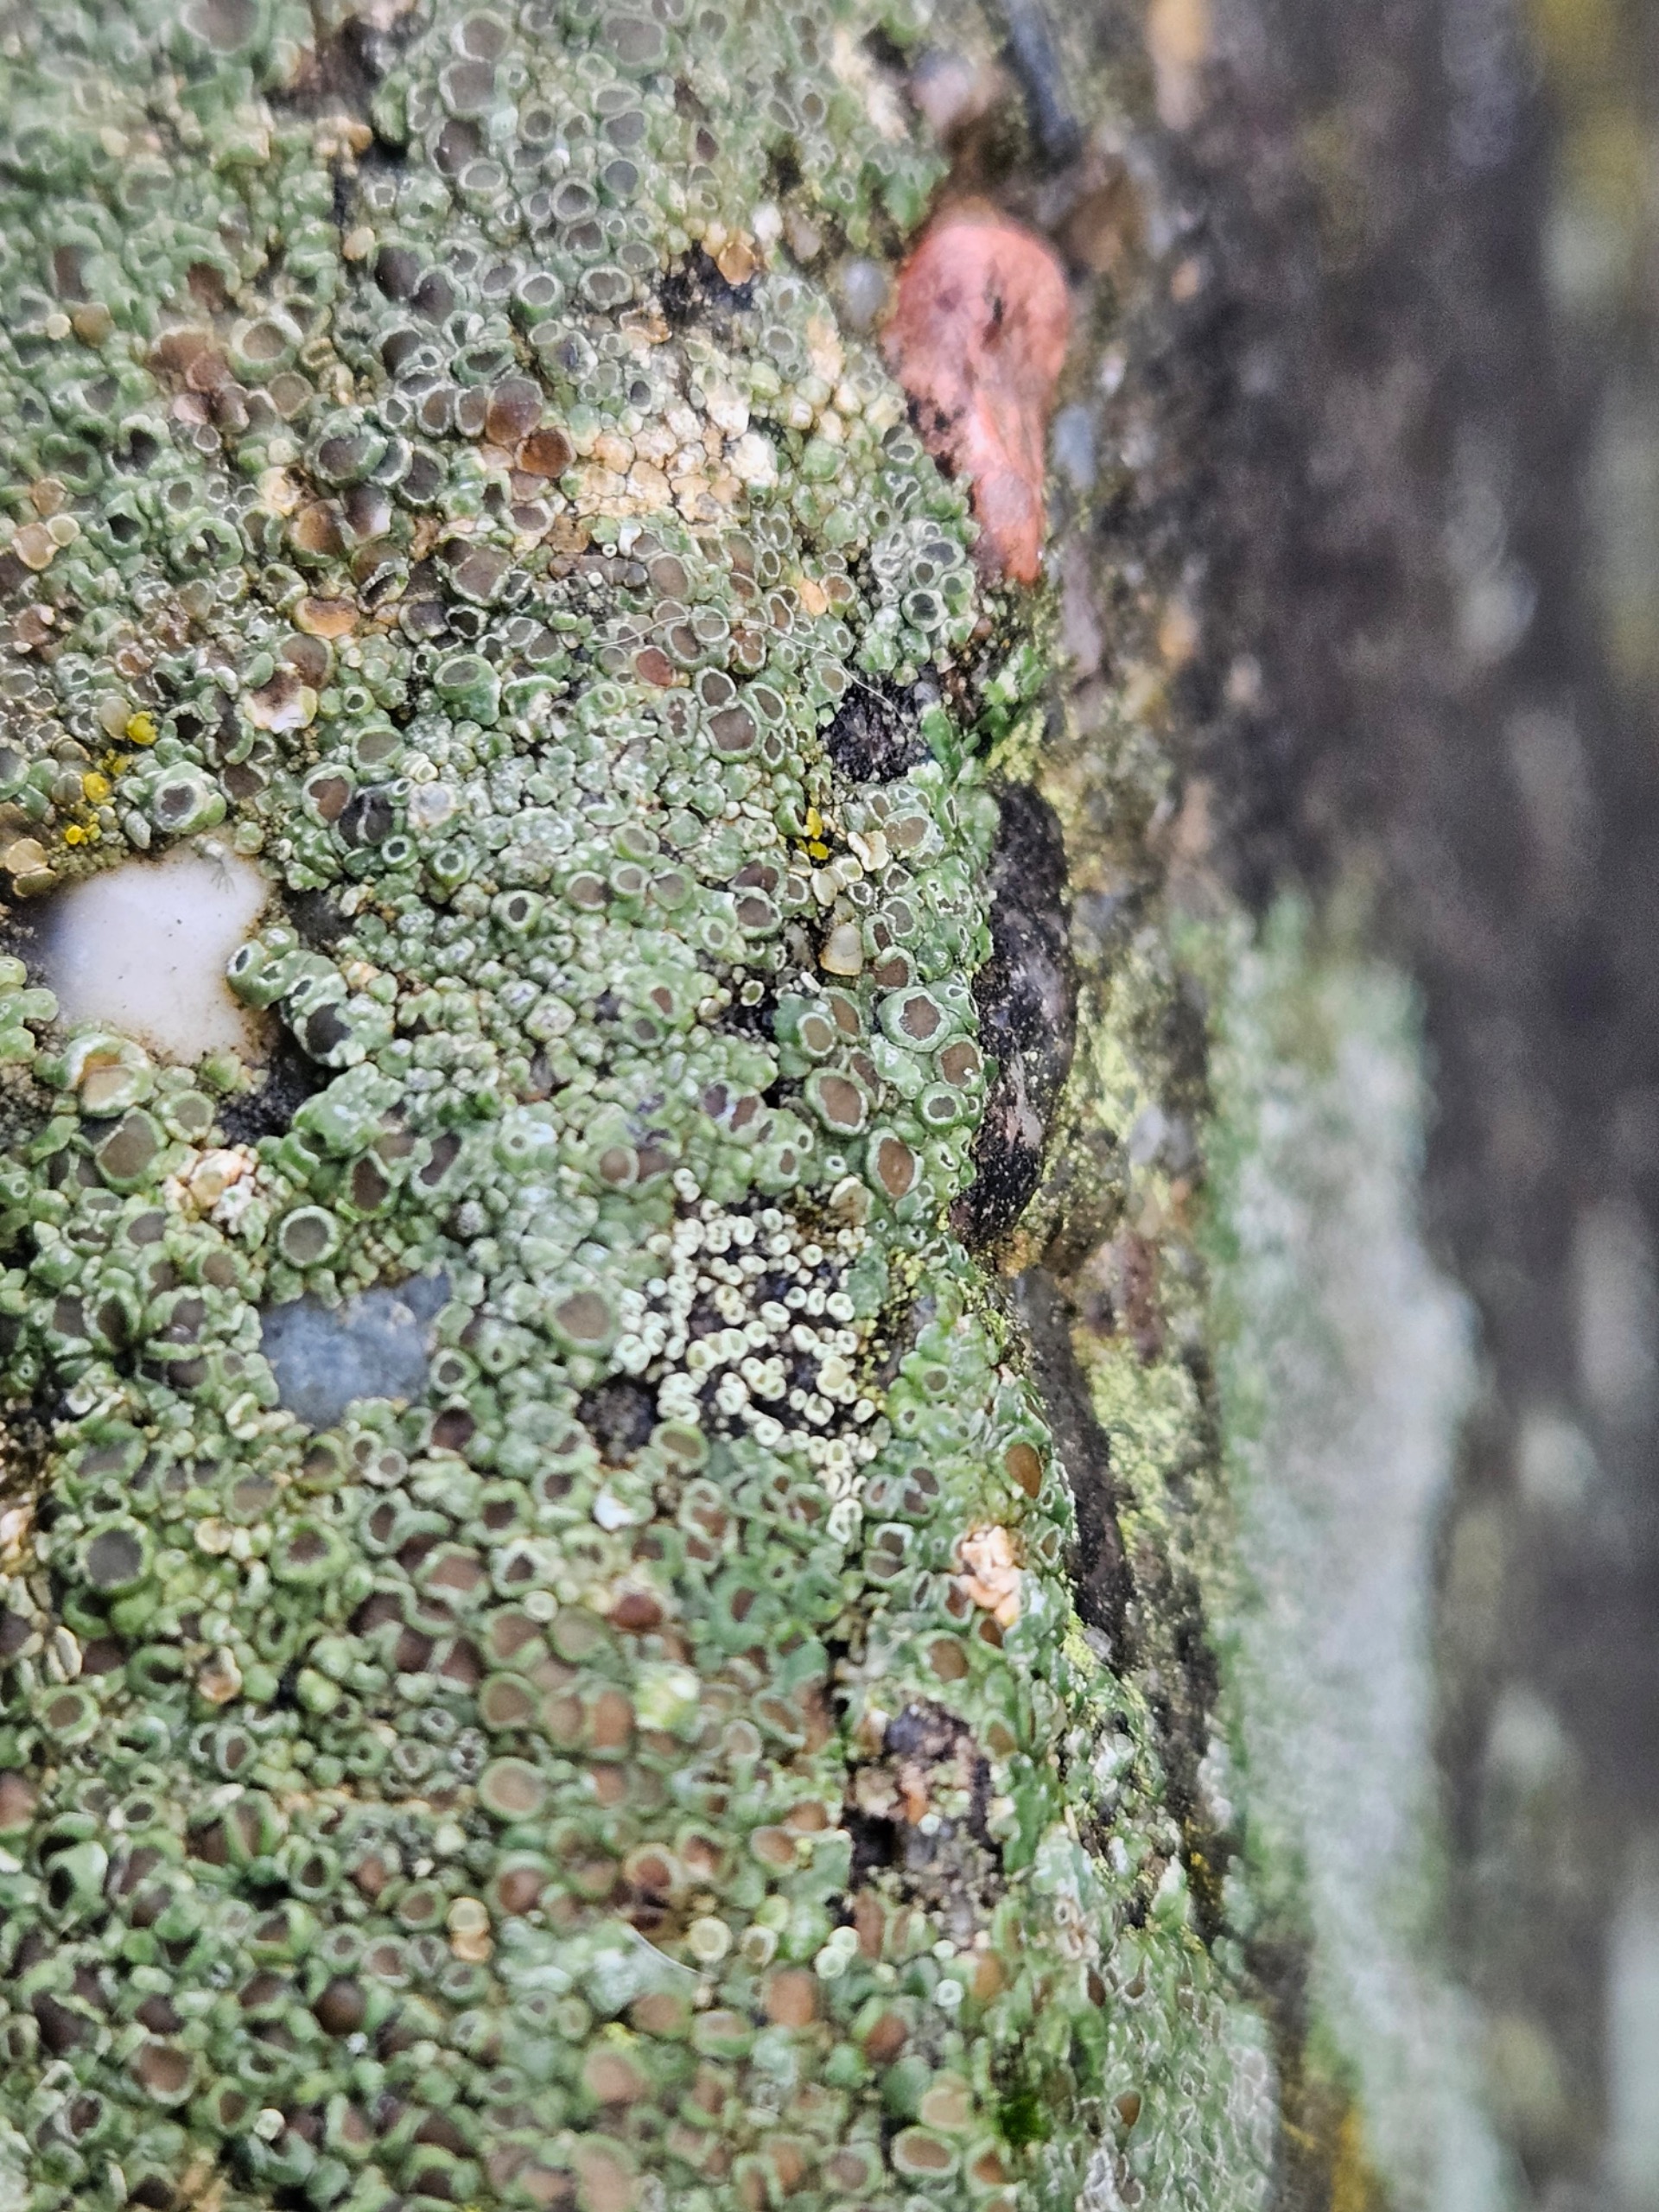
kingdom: Fungi
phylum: Ascomycota
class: Lecanoromycetes
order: Lecanorales
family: Lecanoraceae
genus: Polyozosia
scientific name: Polyozosia semipallida
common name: Vinetorin-kantskivelav
